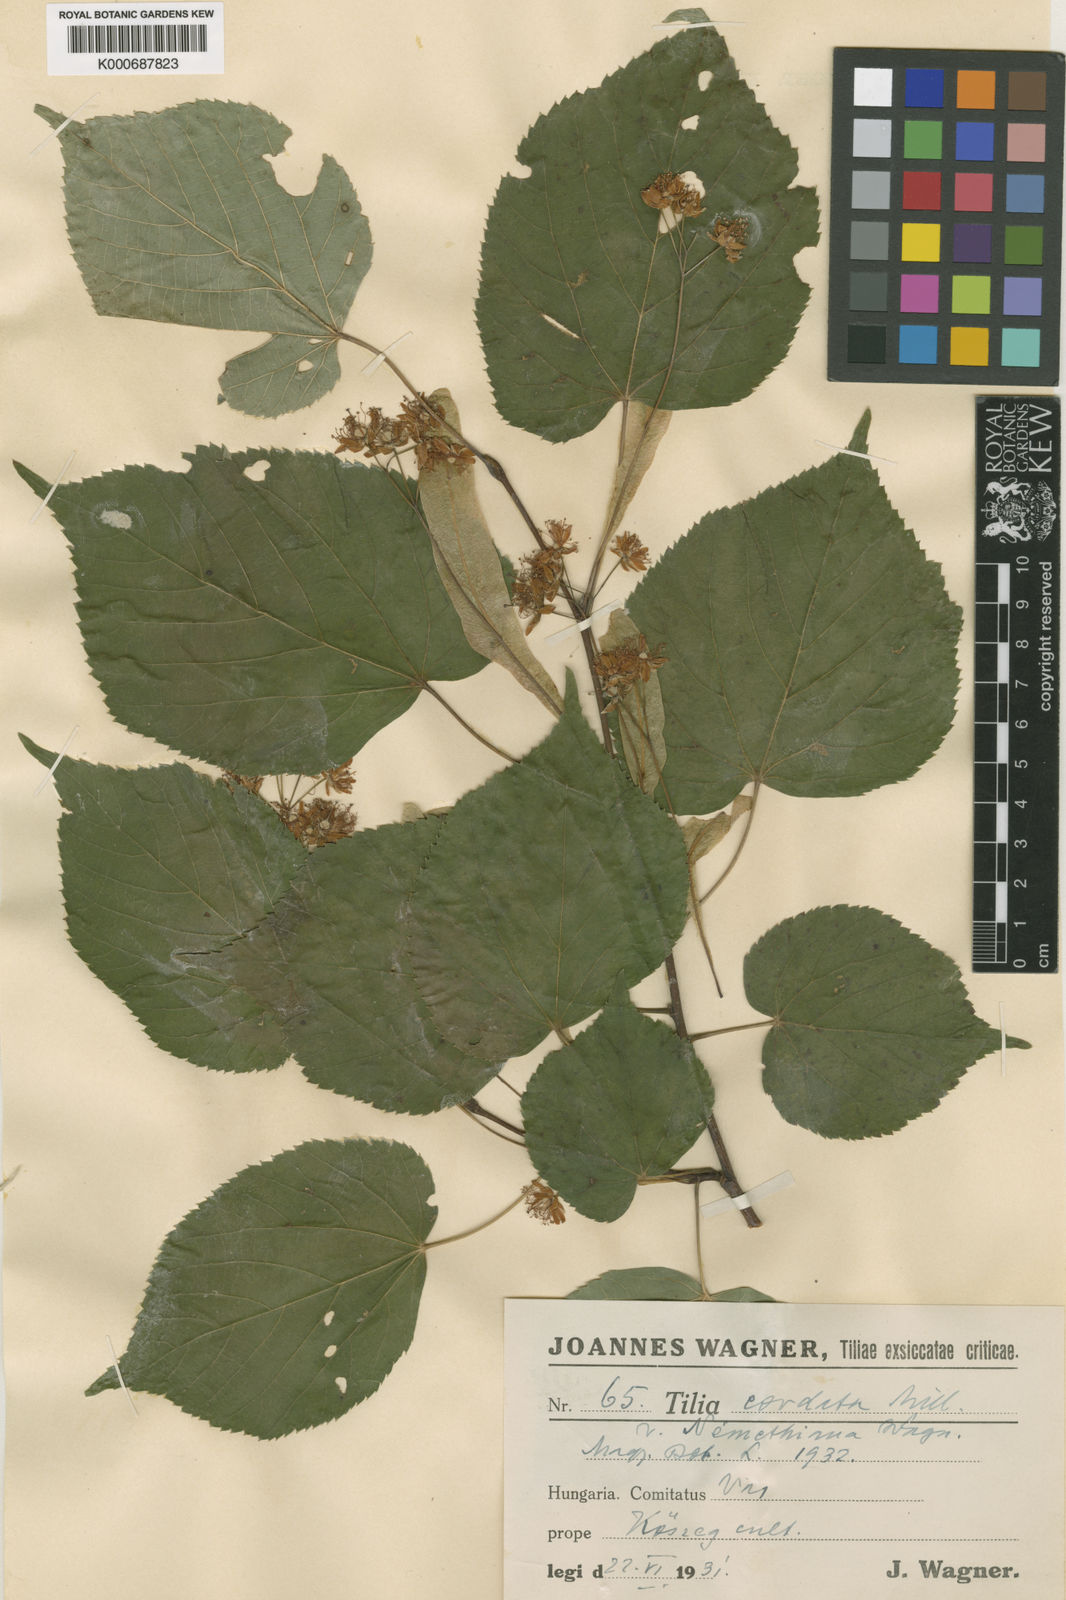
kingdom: Plantae
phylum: Tracheophyta
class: Magnoliopsida
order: Malvales
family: Malvaceae
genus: Tilia
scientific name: Tilia cordata
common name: Small-leaved lime
